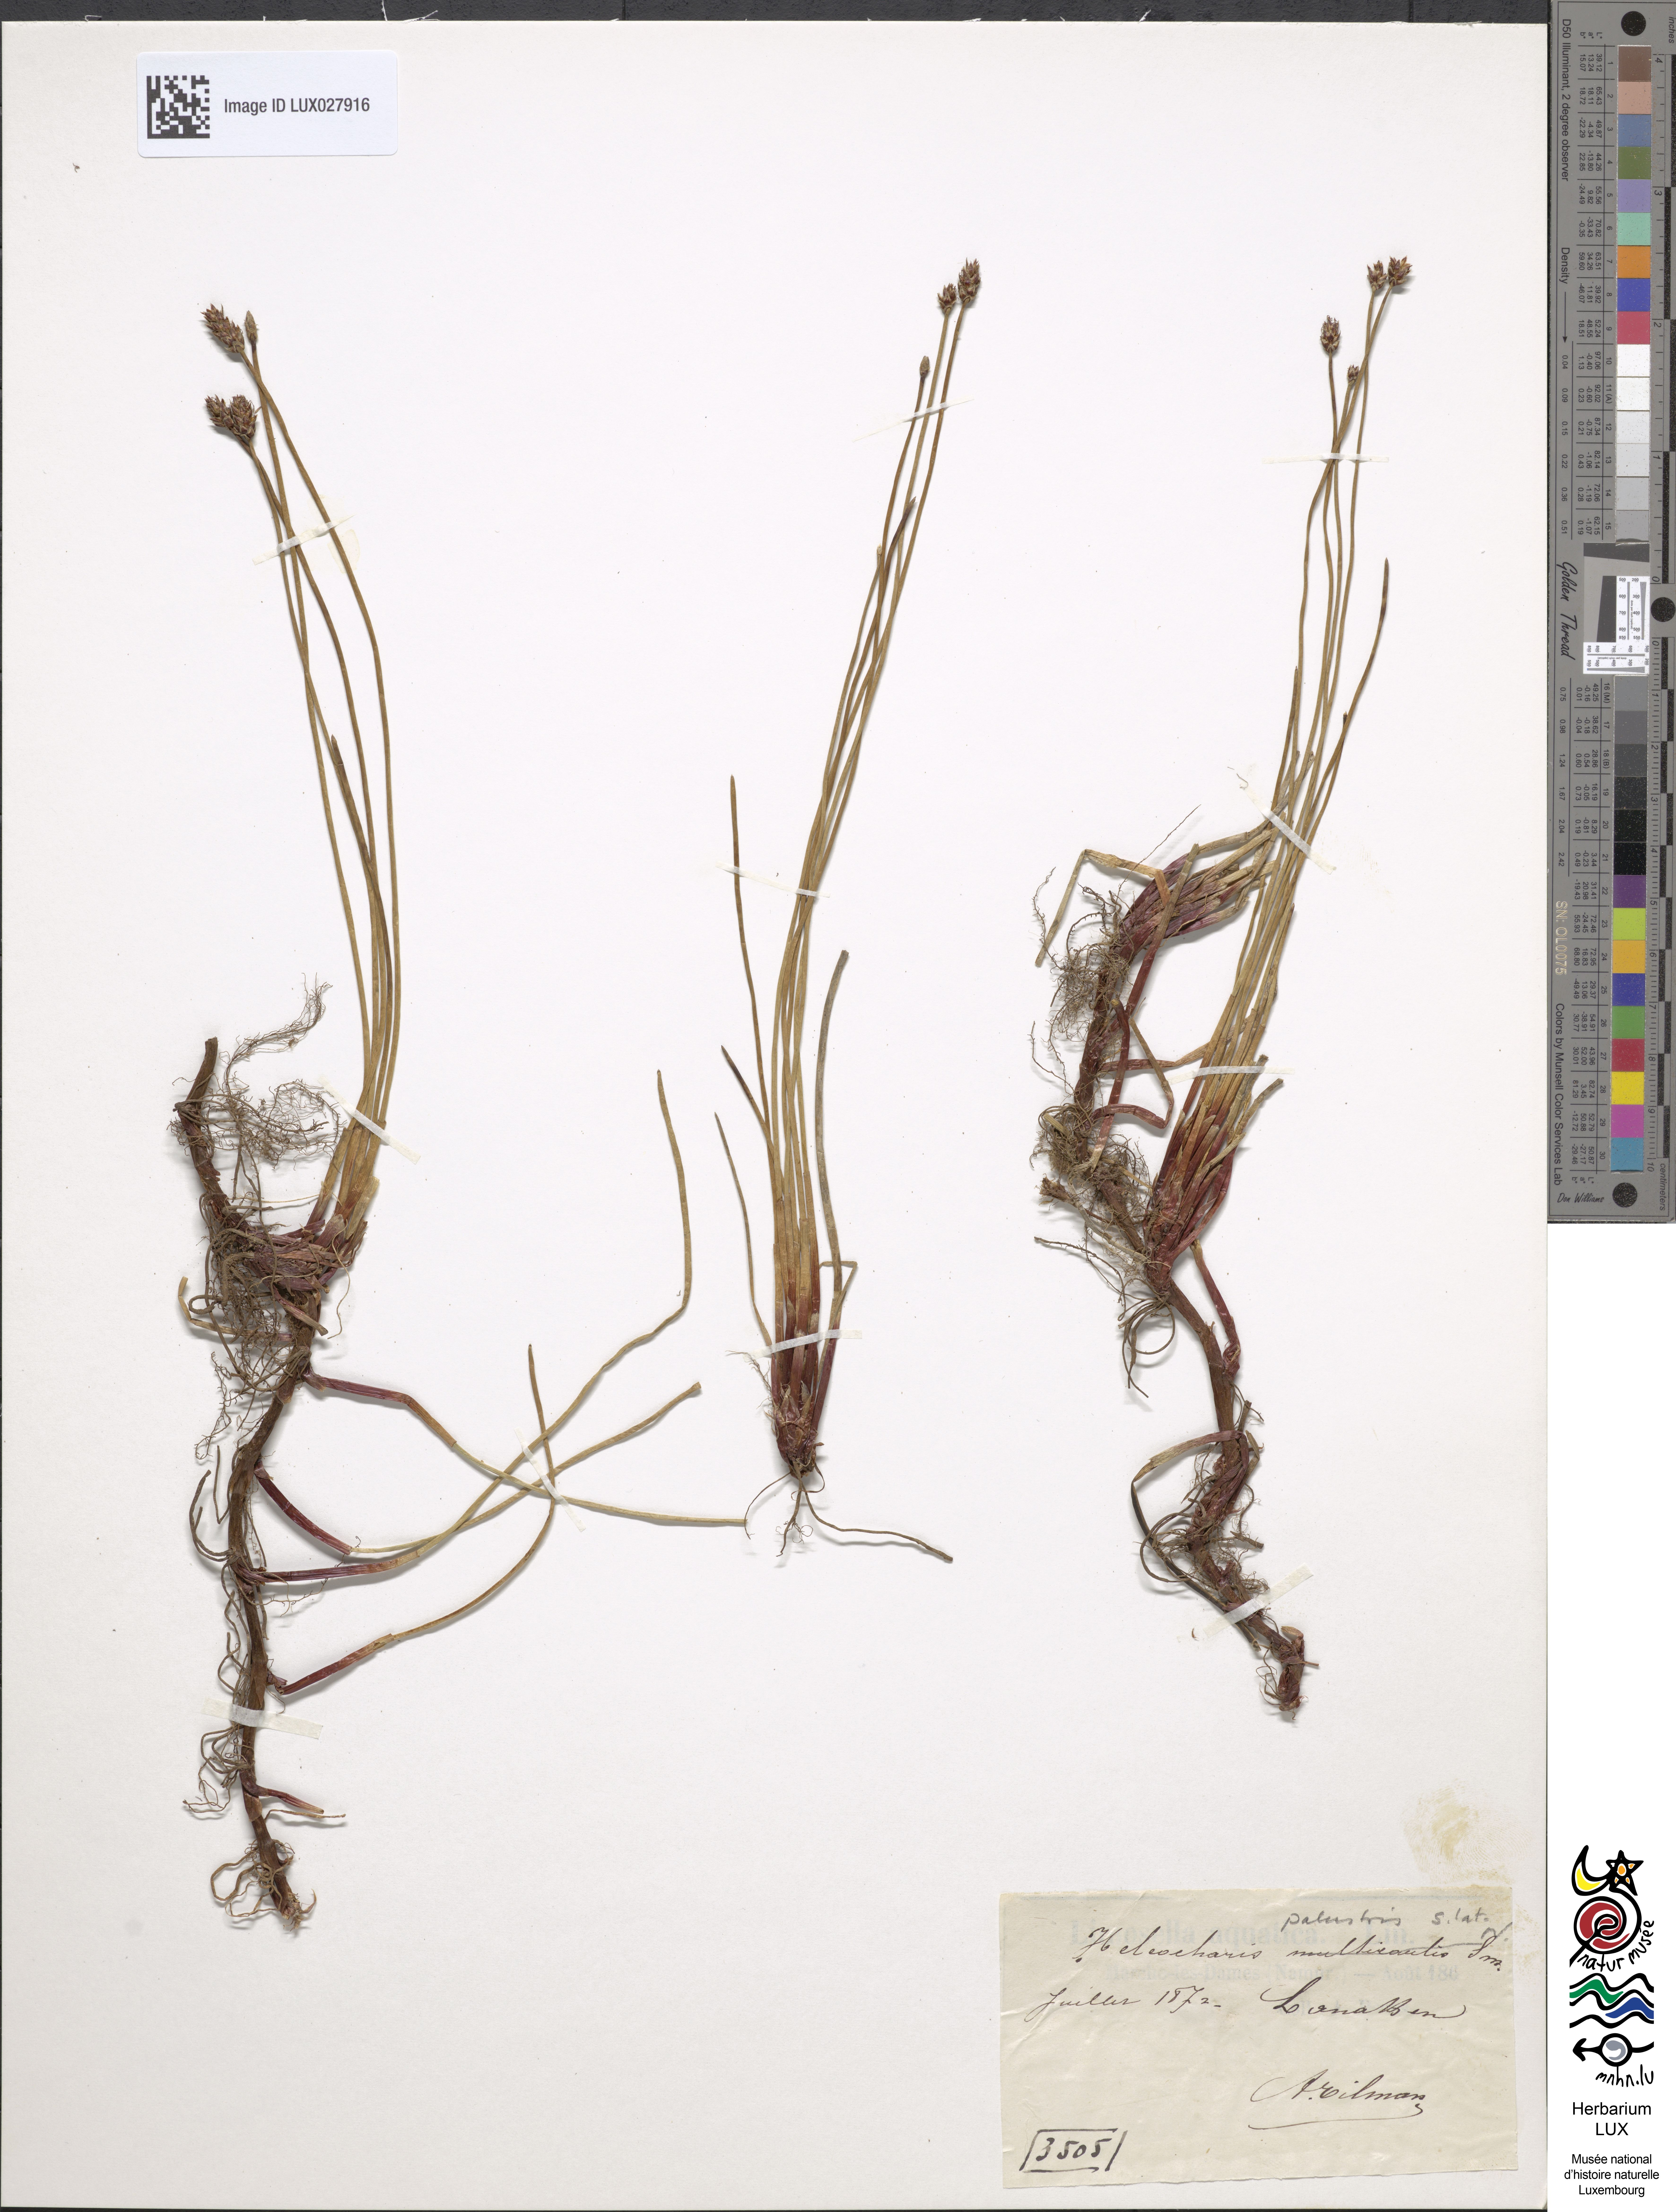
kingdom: Plantae
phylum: Tracheophyta
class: Liliopsida
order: Poales
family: Cyperaceae
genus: Eleocharis
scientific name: Eleocharis multicaulis
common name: Many-stalked spike-rush
